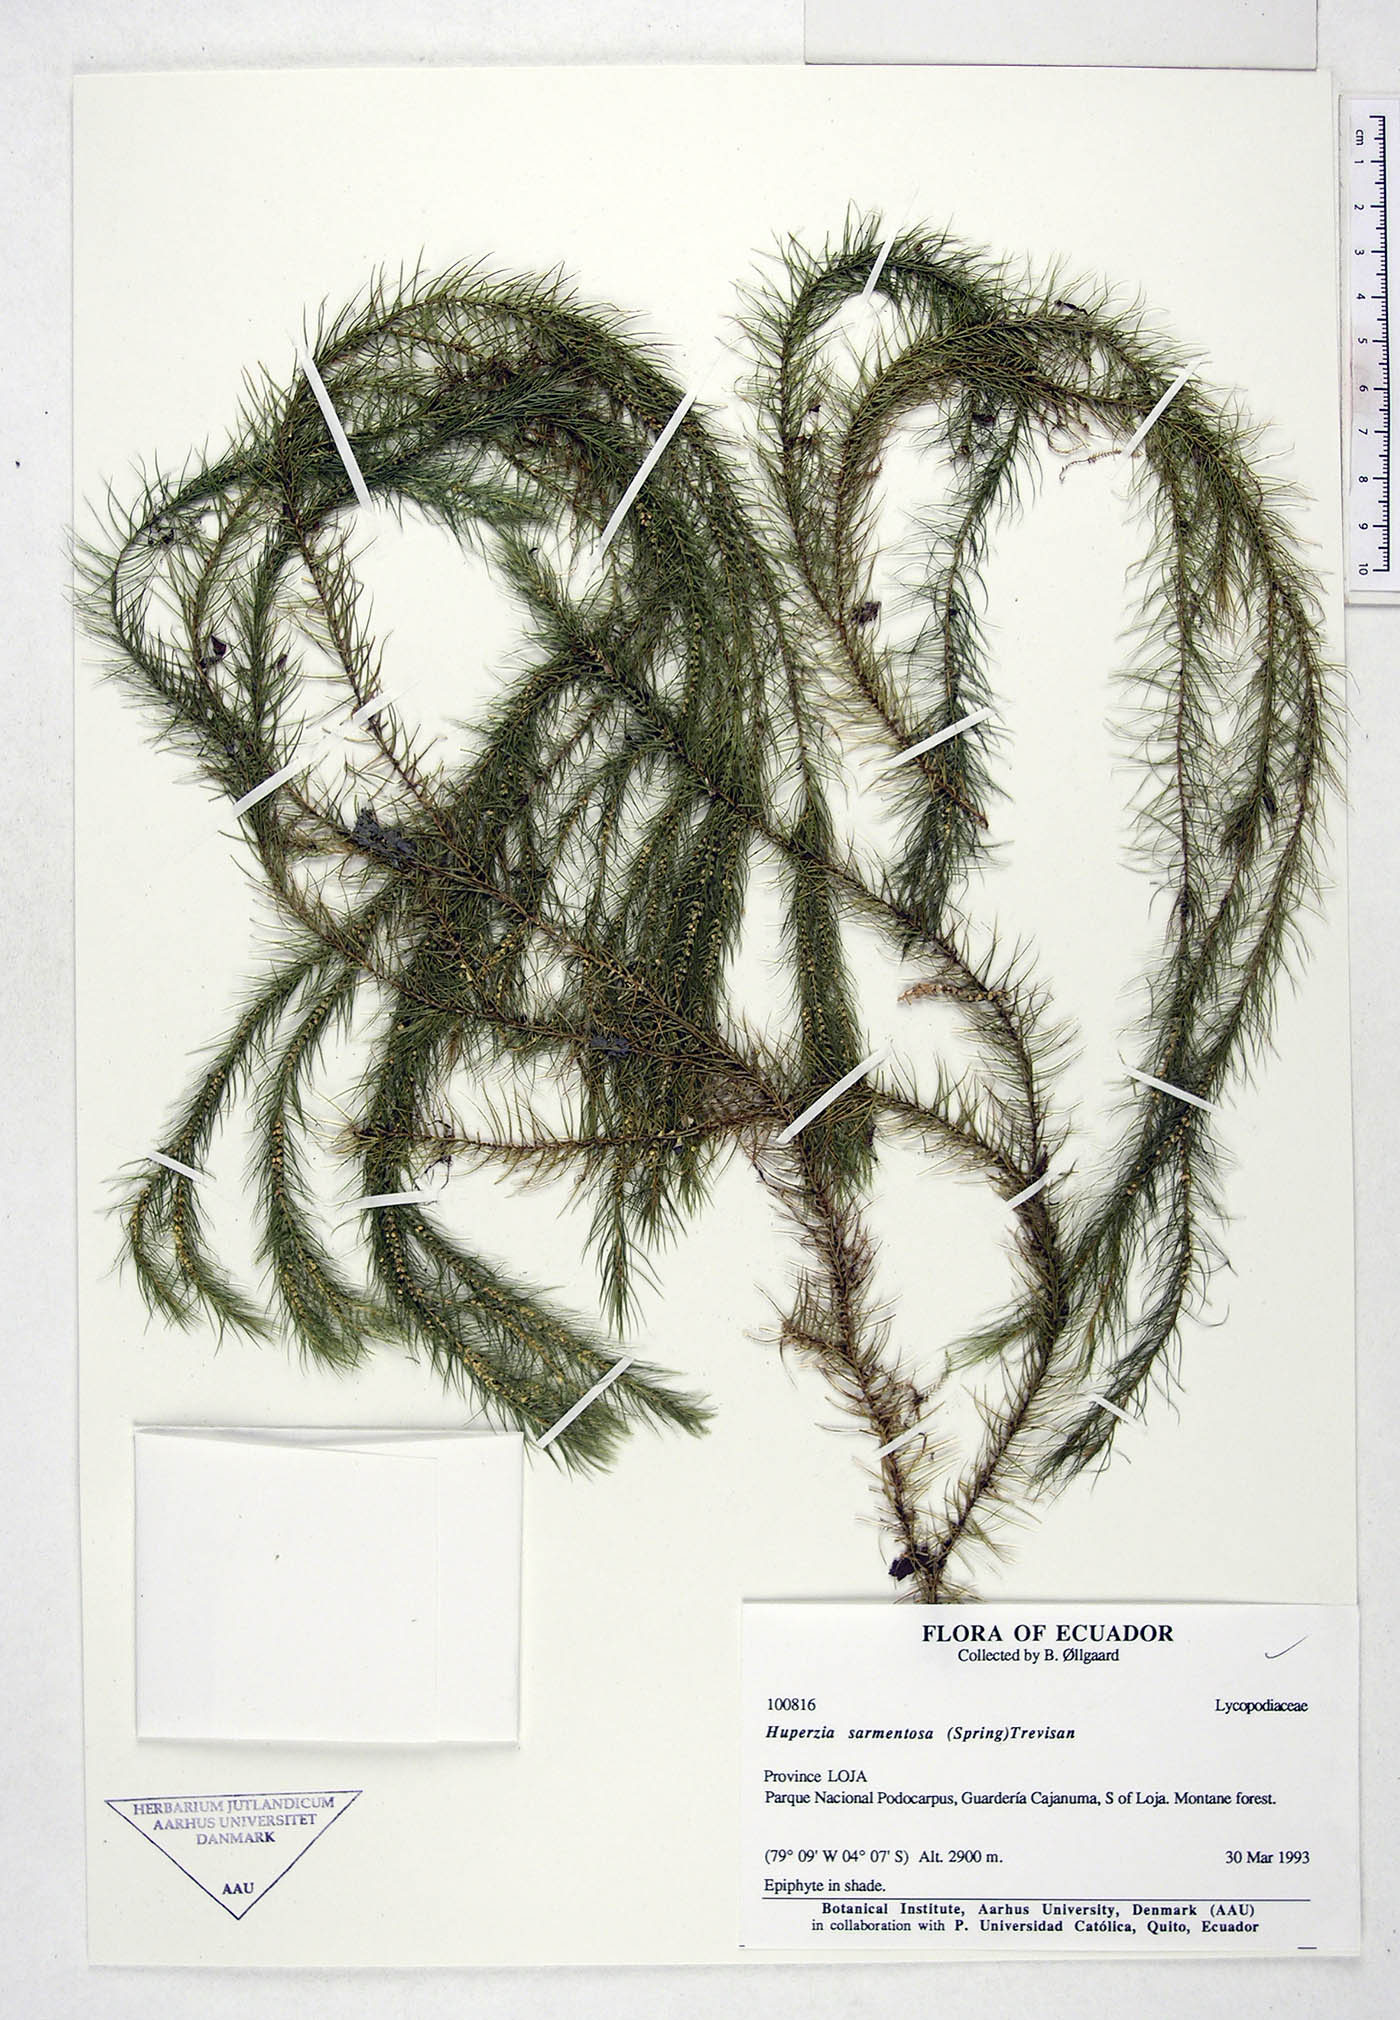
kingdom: Plantae
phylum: Tracheophyta
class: Lycopodiopsida
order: Lycopodiales
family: Lycopodiaceae
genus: Phlegmariurus
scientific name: Phlegmariurus sarmentosus
